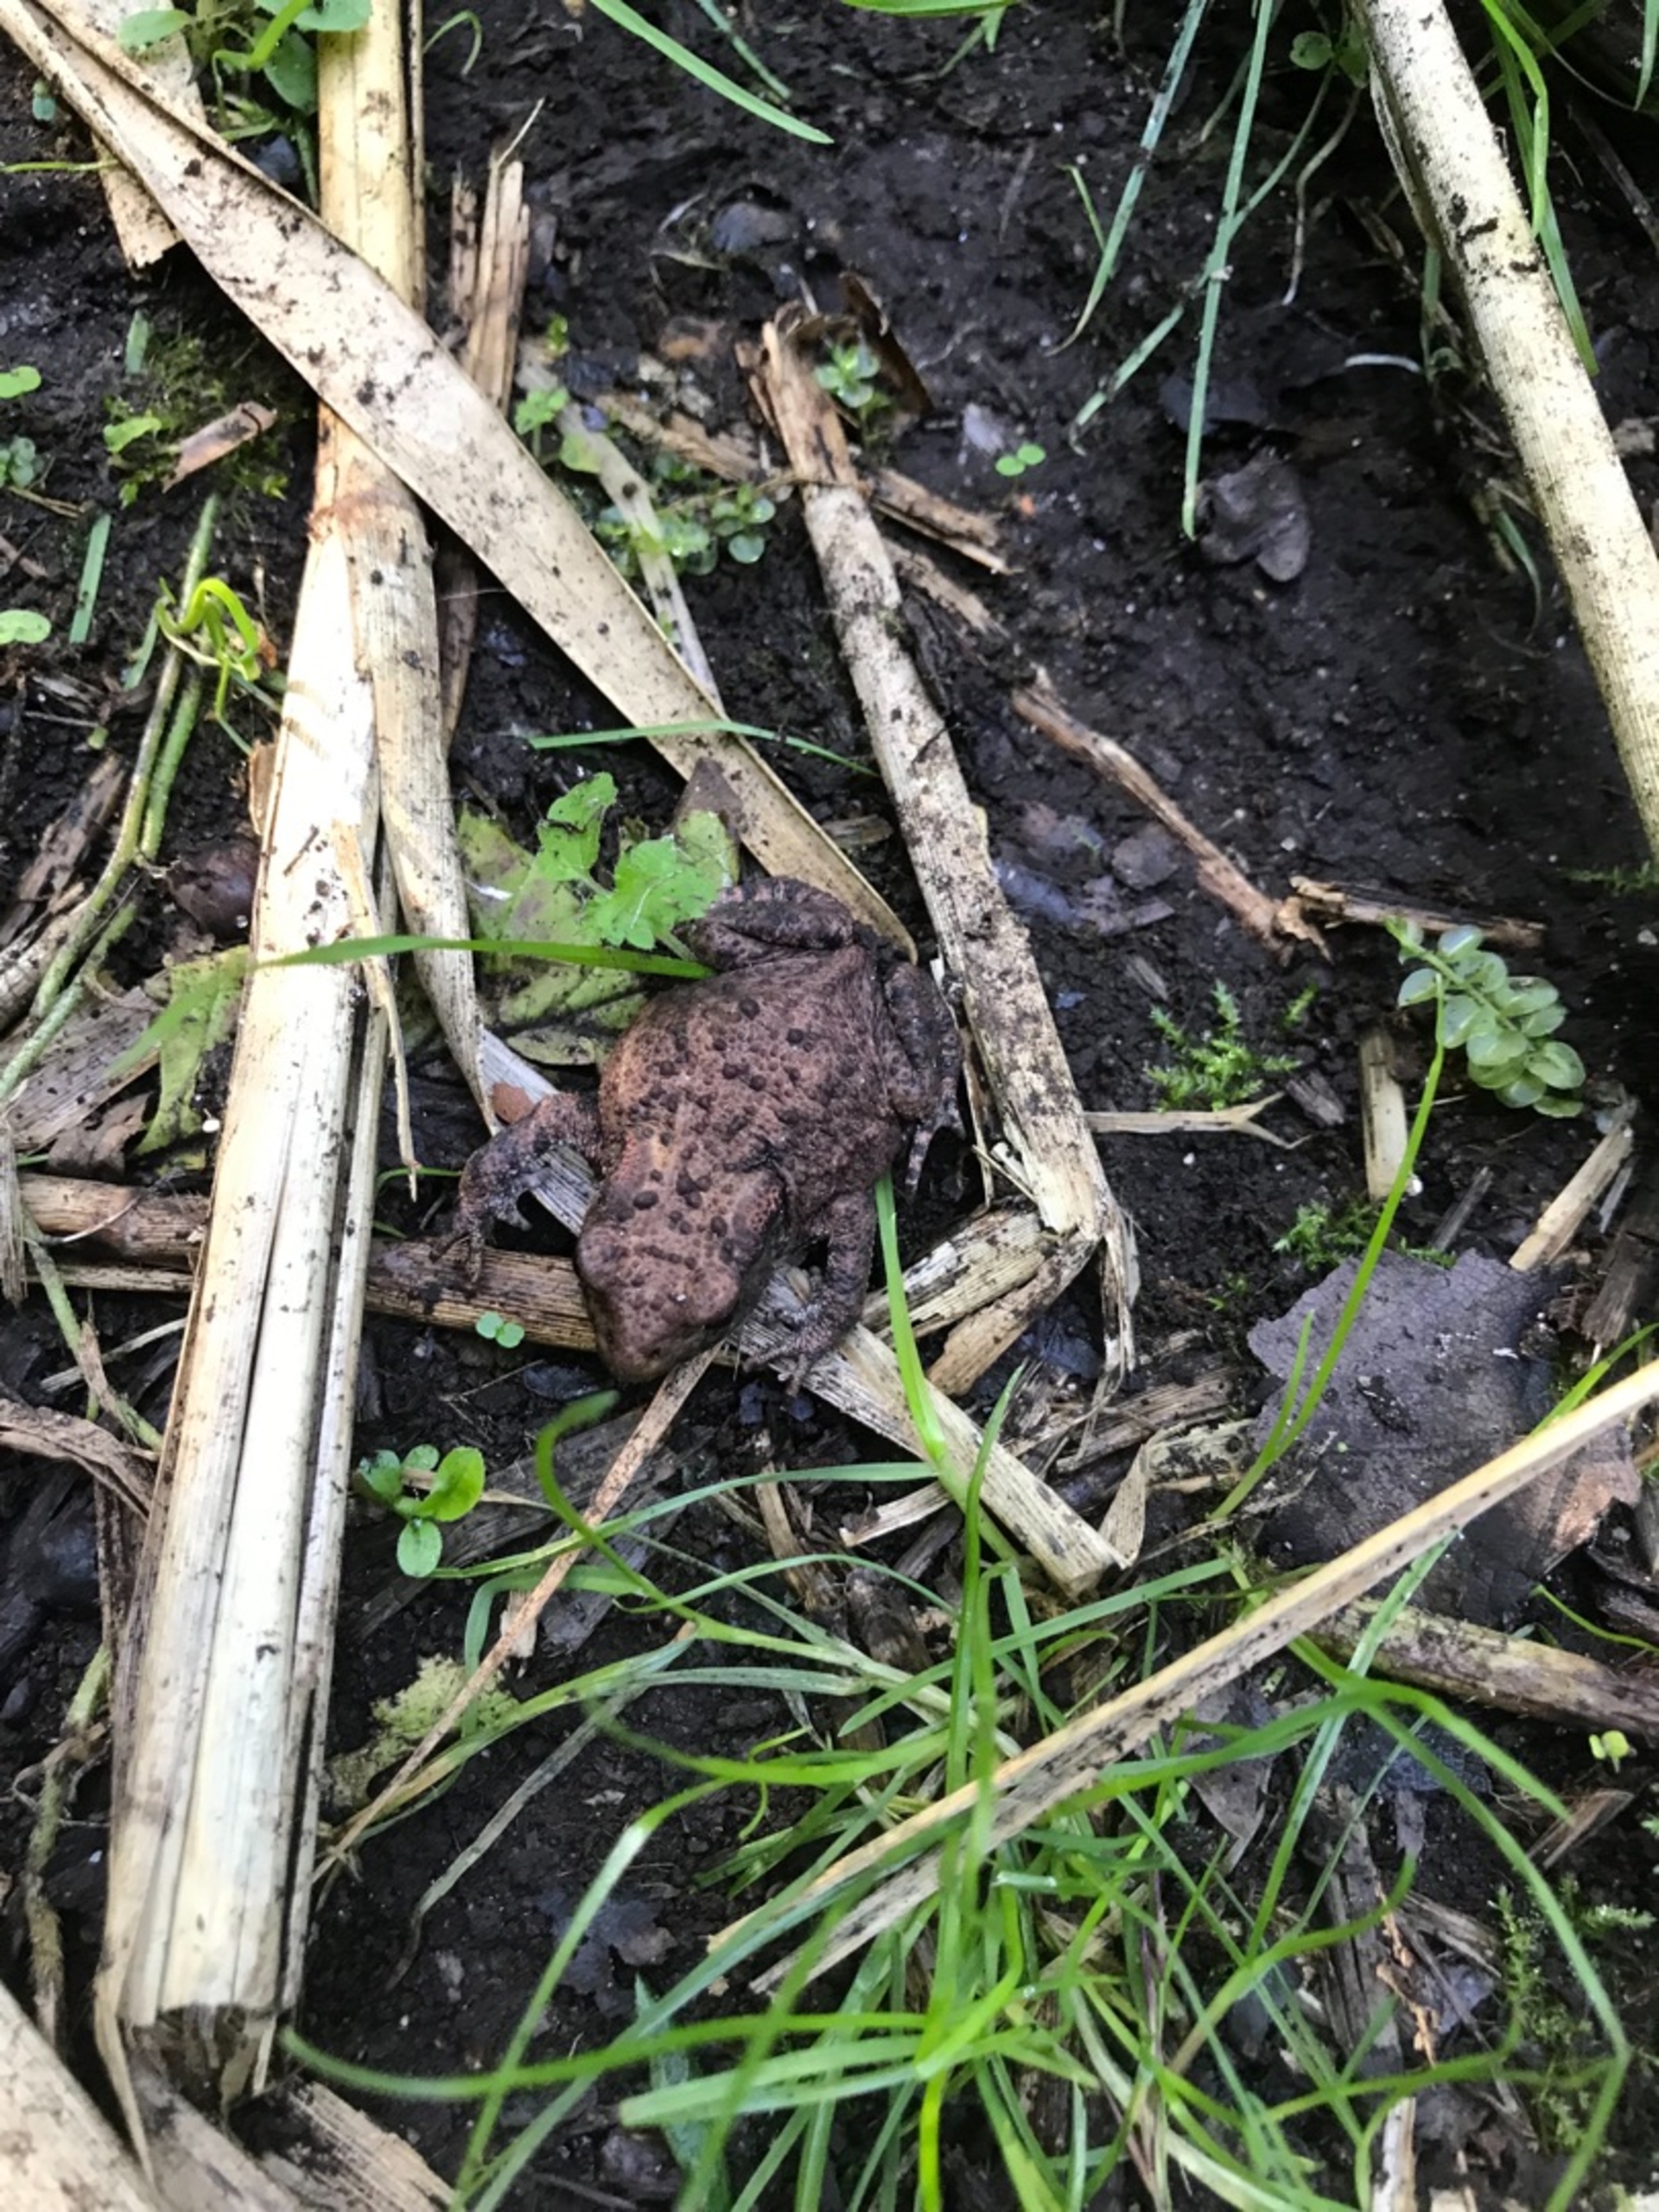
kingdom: Animalia
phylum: Chordata
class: Amphibia
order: Anura
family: Bufonidae
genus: Bufo
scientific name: Bufo bufo
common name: Skrubtudse
